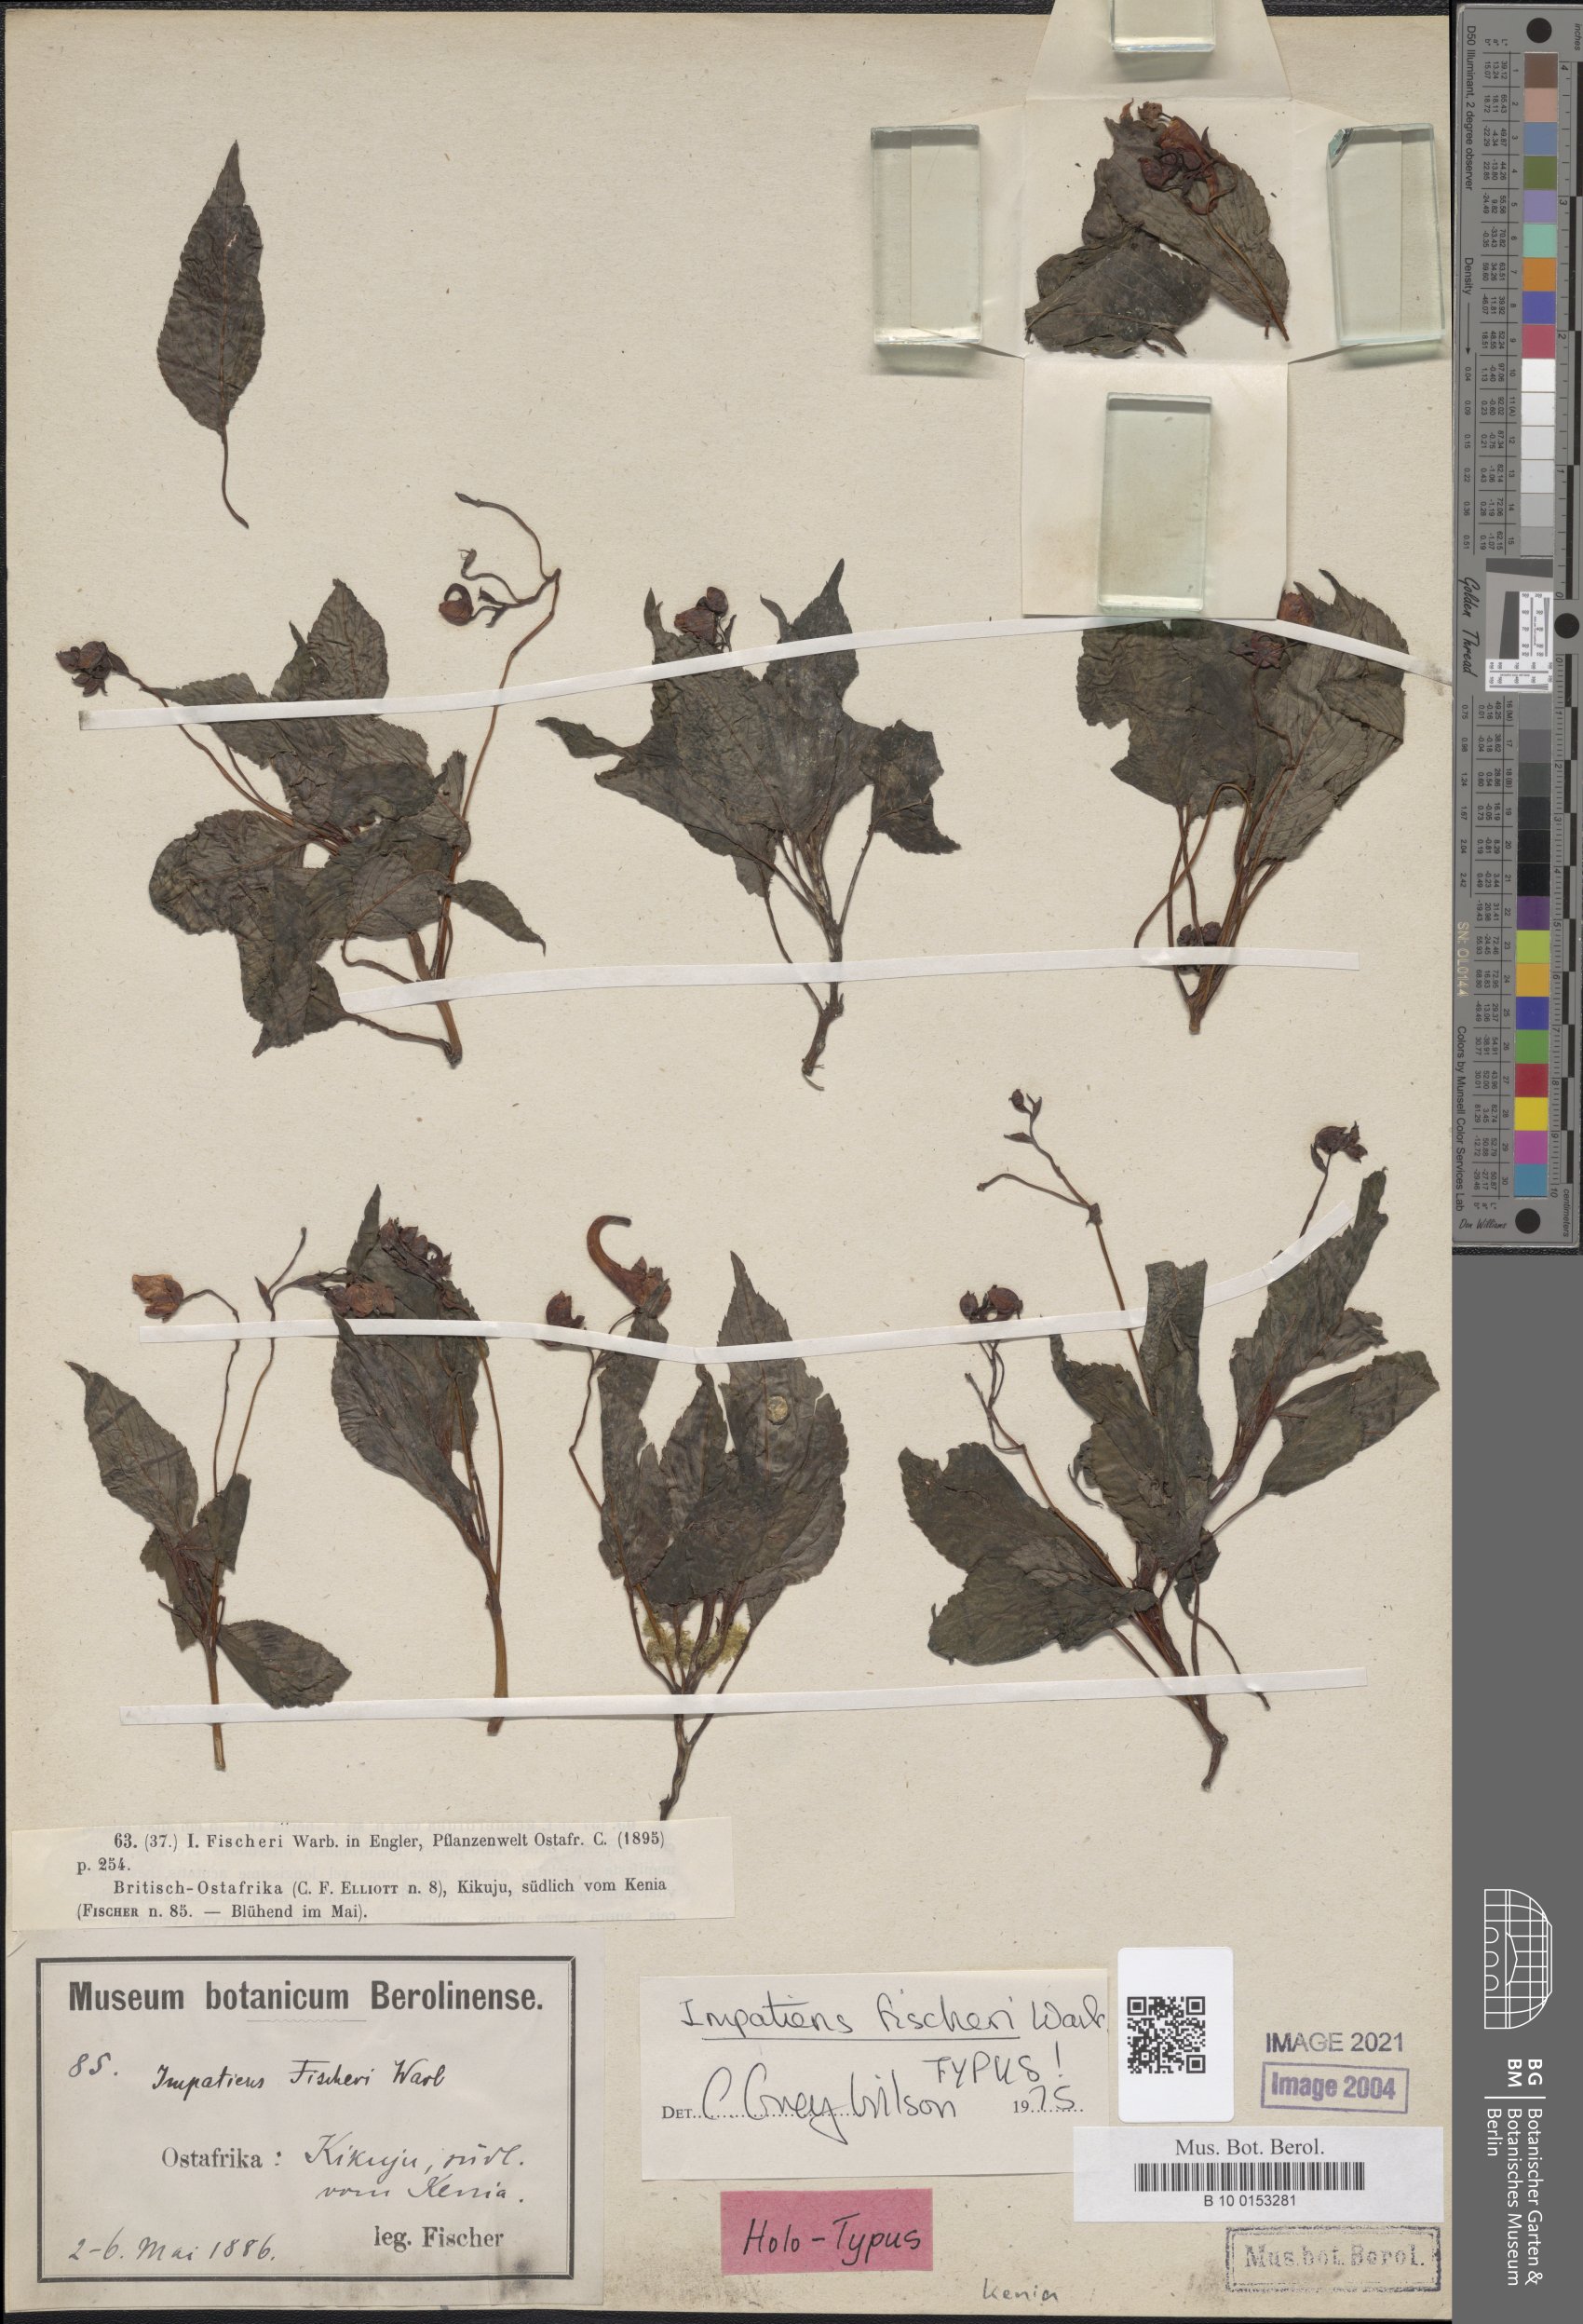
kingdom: Plantae
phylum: Tracheophyta
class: Magnoliopsida
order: Ericales
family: Balsaminaceae
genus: Impatiens
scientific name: Impatiens fischeri
